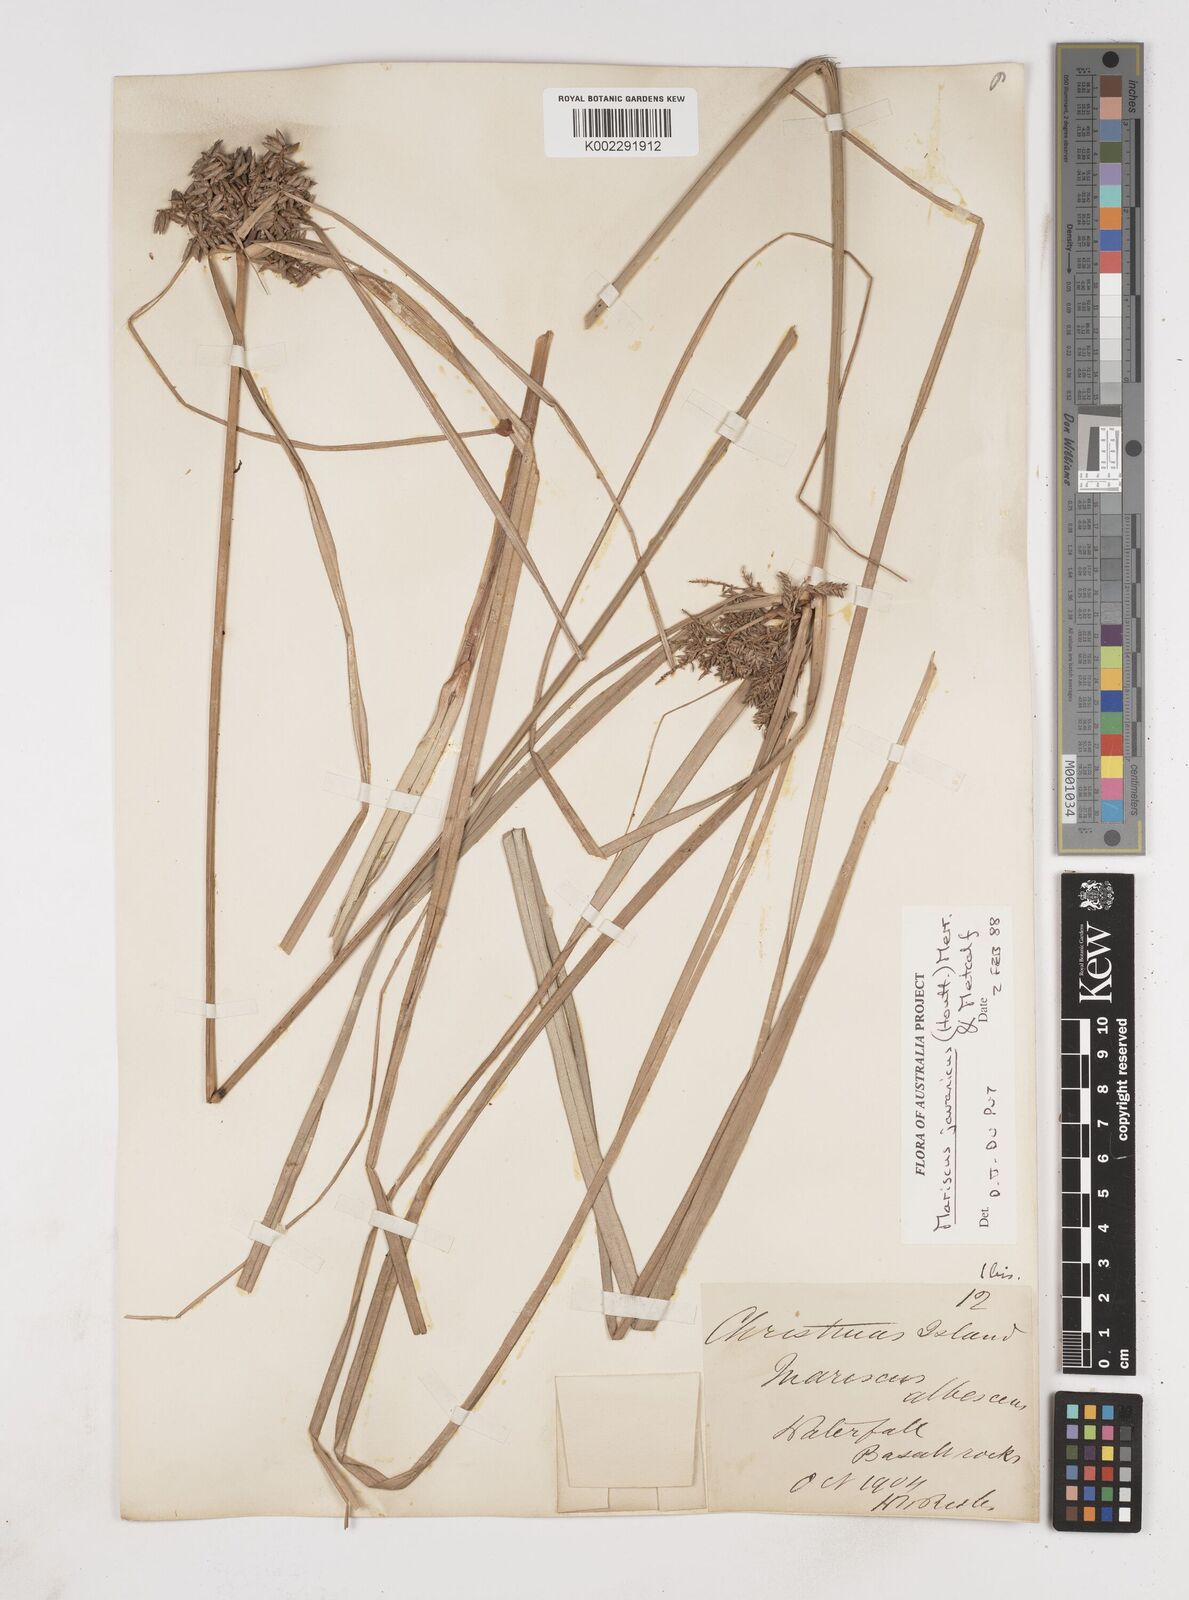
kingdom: Plantae
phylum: Tracheophyta
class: Liliopsida
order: Poales
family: Cyperaceae
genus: Cyperus
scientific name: Cyperus javanicus
